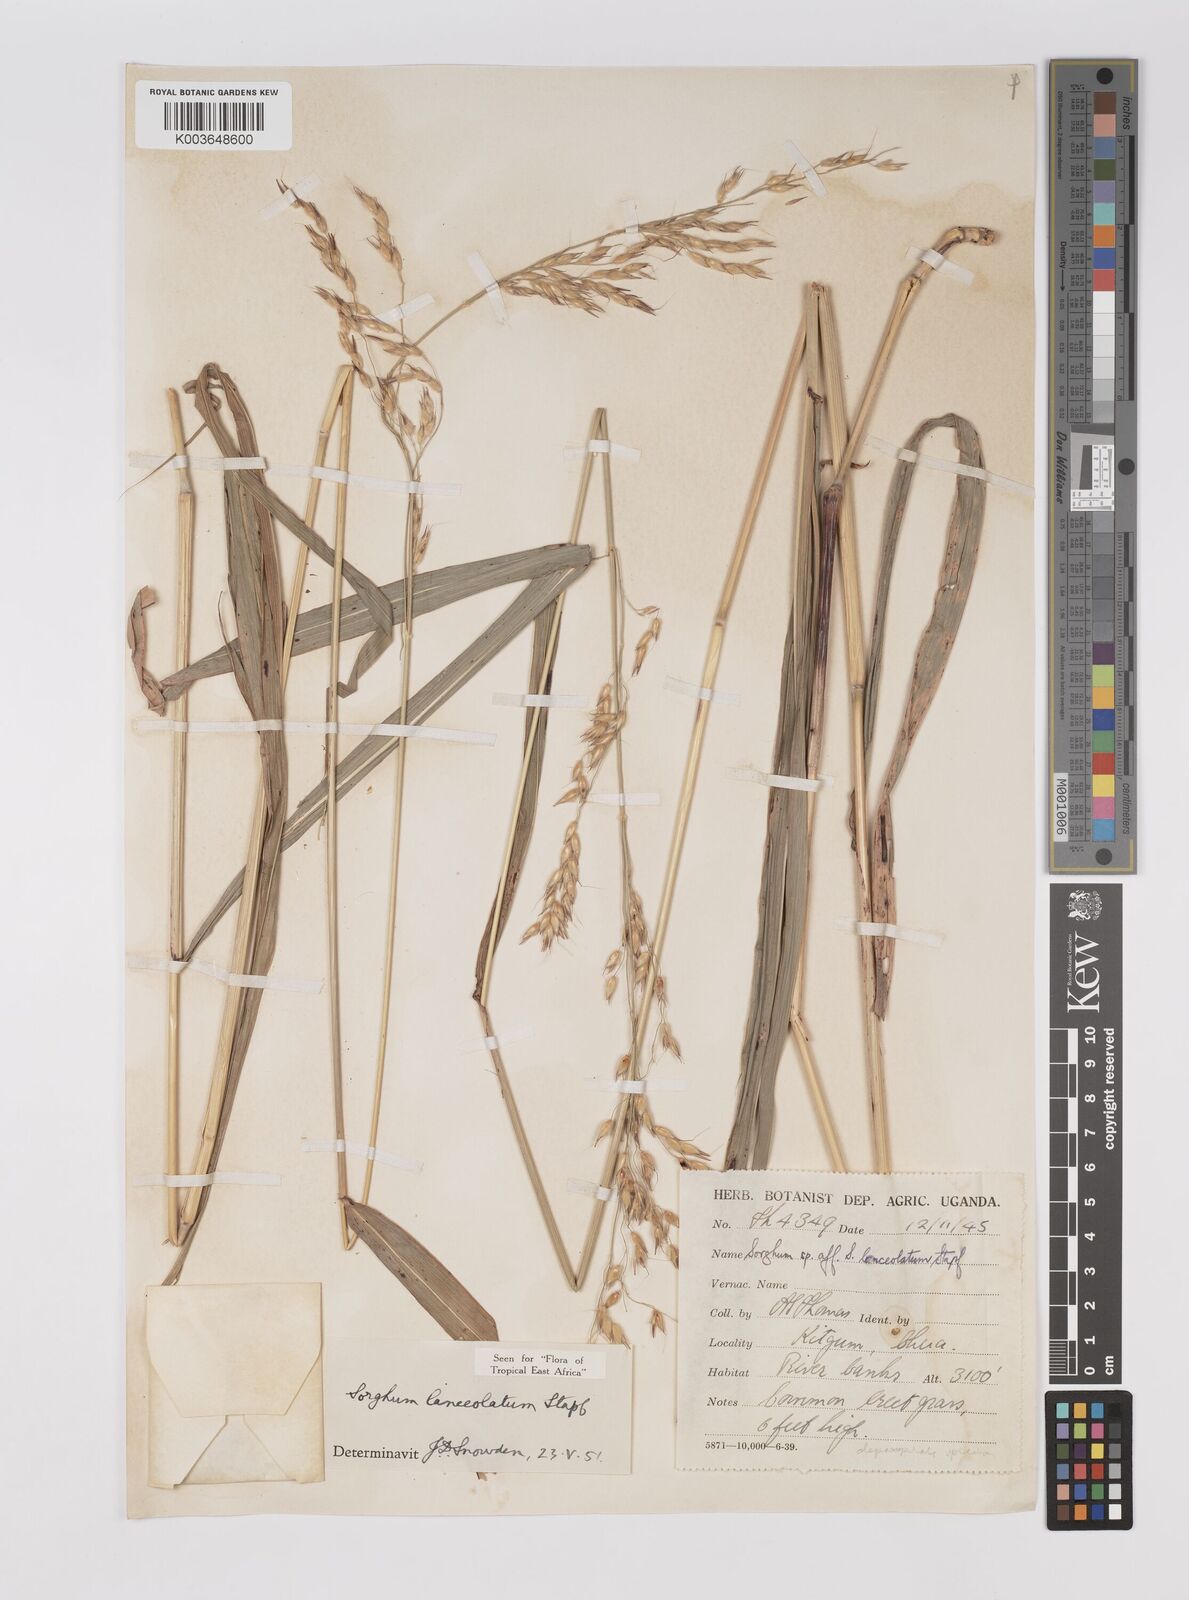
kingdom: Plantae
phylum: Tracheophyta
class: Liliopsida
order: Poales
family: Poaceae
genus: Sorghum
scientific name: Sorghum arundinaceum
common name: Sorghum
